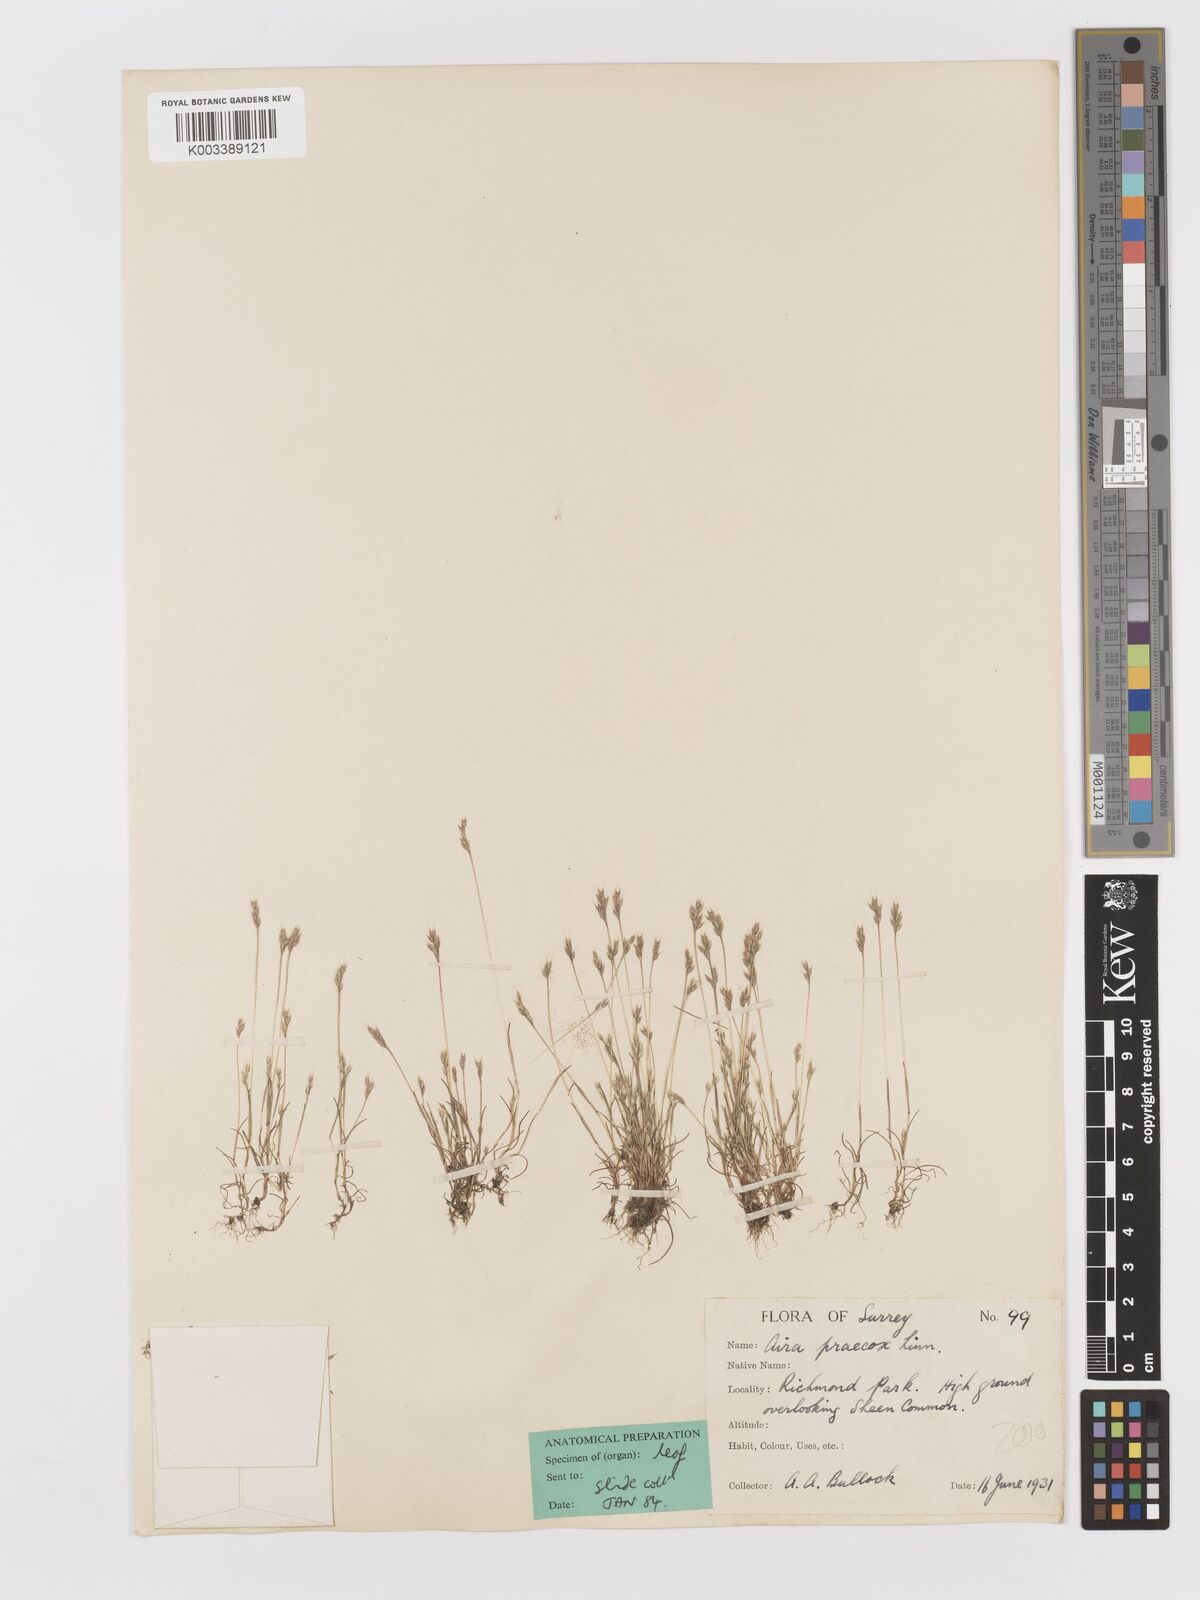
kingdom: Plantae
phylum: Tracheophyta
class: Liliopsida
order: Poales
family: Poaceae
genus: Aira
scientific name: Aira praecox
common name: Early hair-grass
